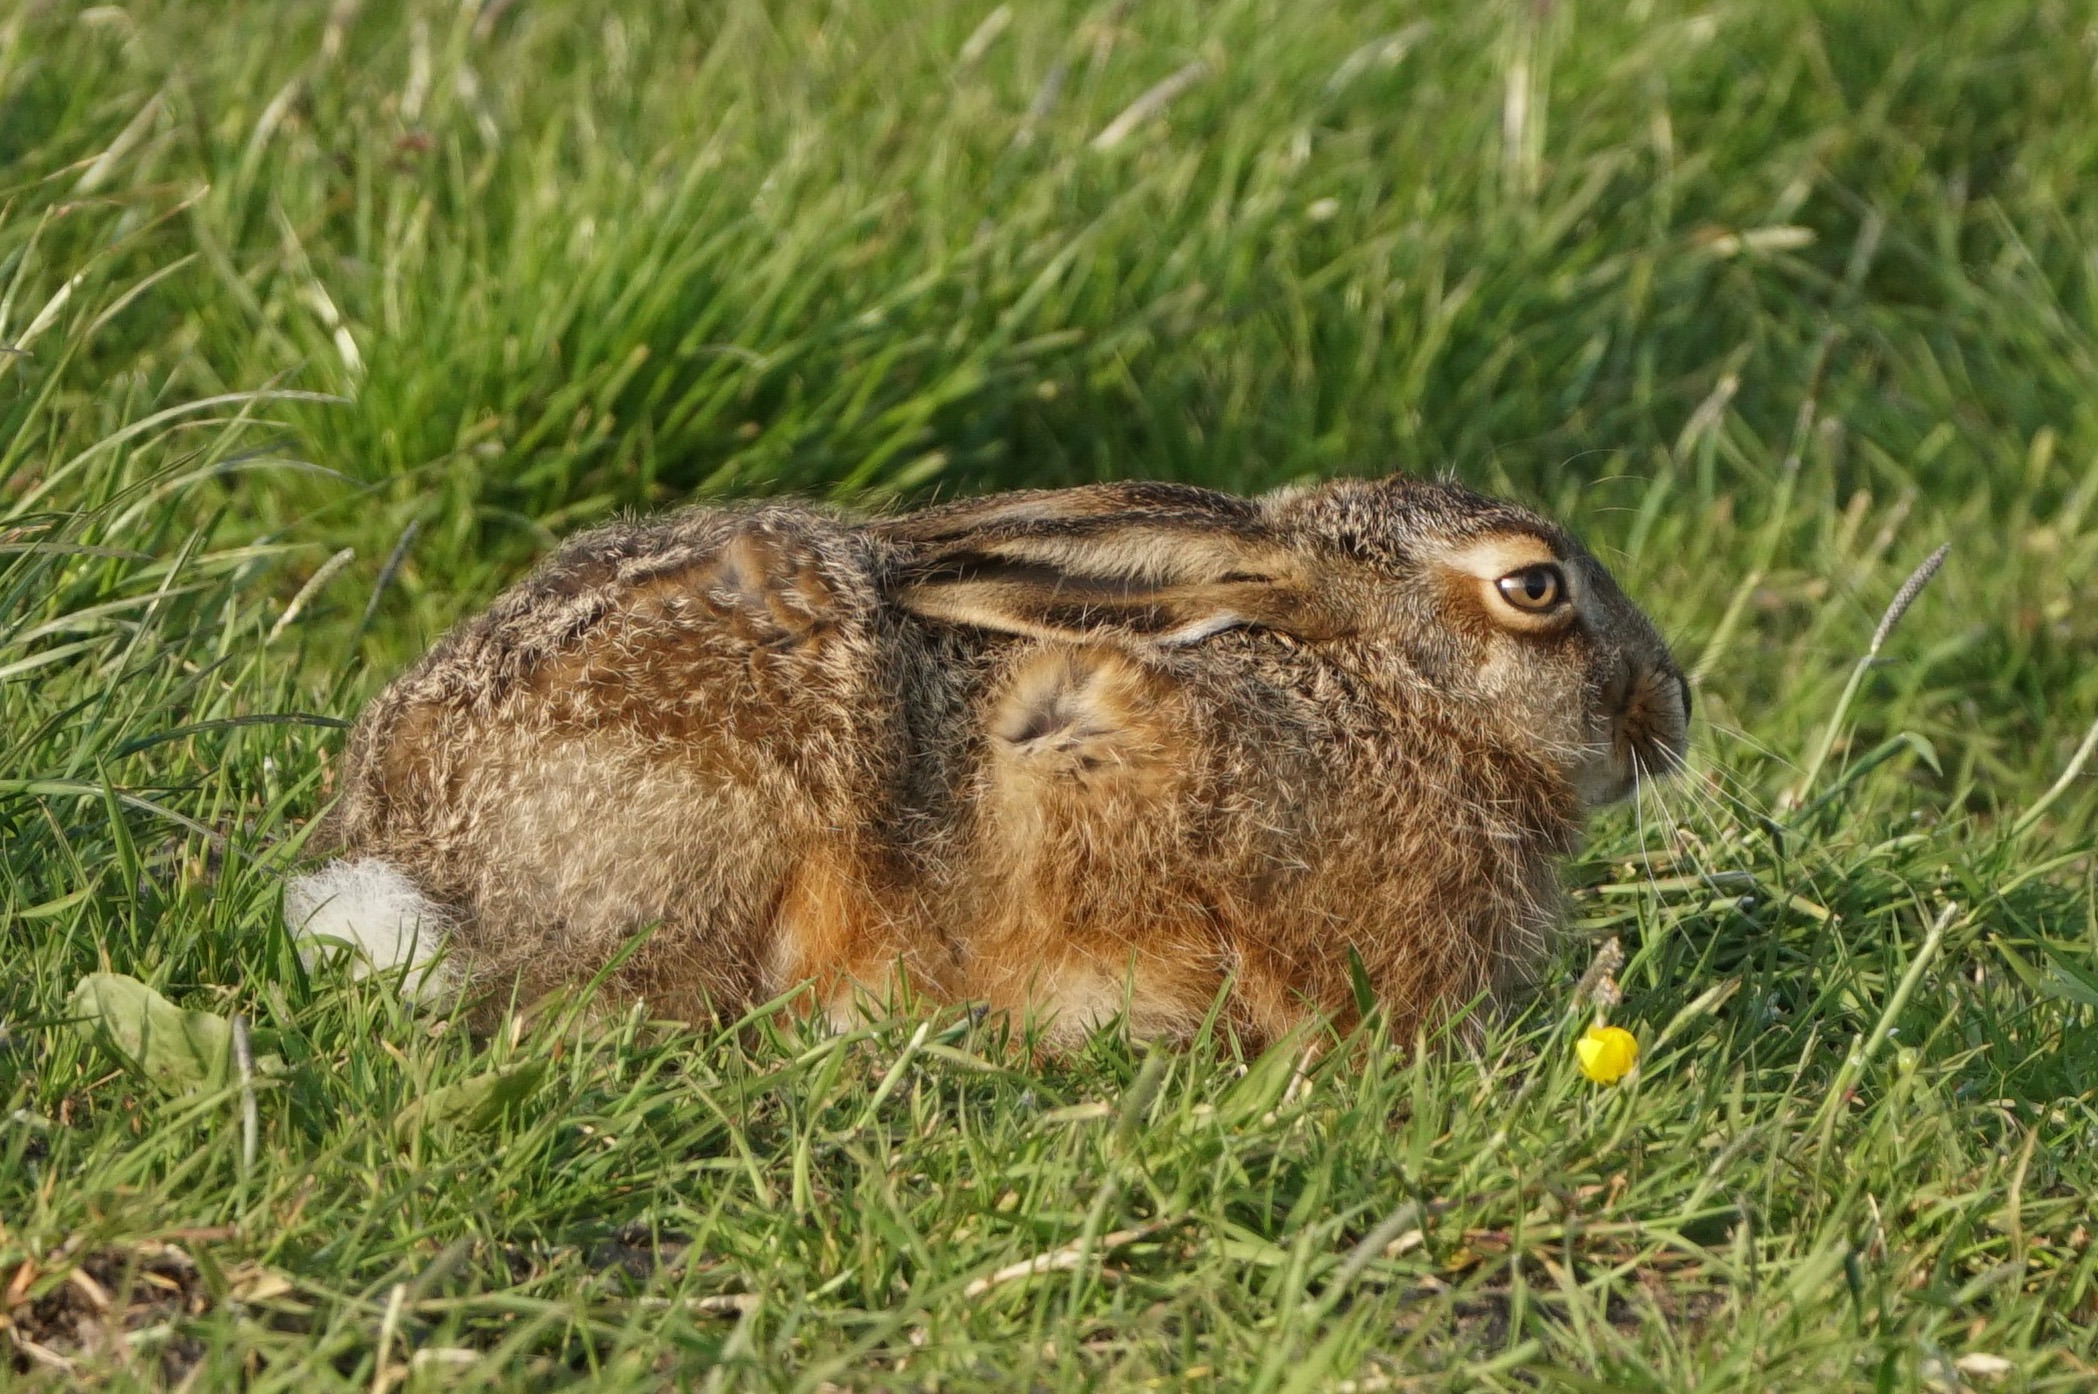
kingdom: Animalia
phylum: Chordata
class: Mammalia
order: Lagomorpha
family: Leporidae
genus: Lepus
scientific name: Lepus europaeus
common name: Hare
